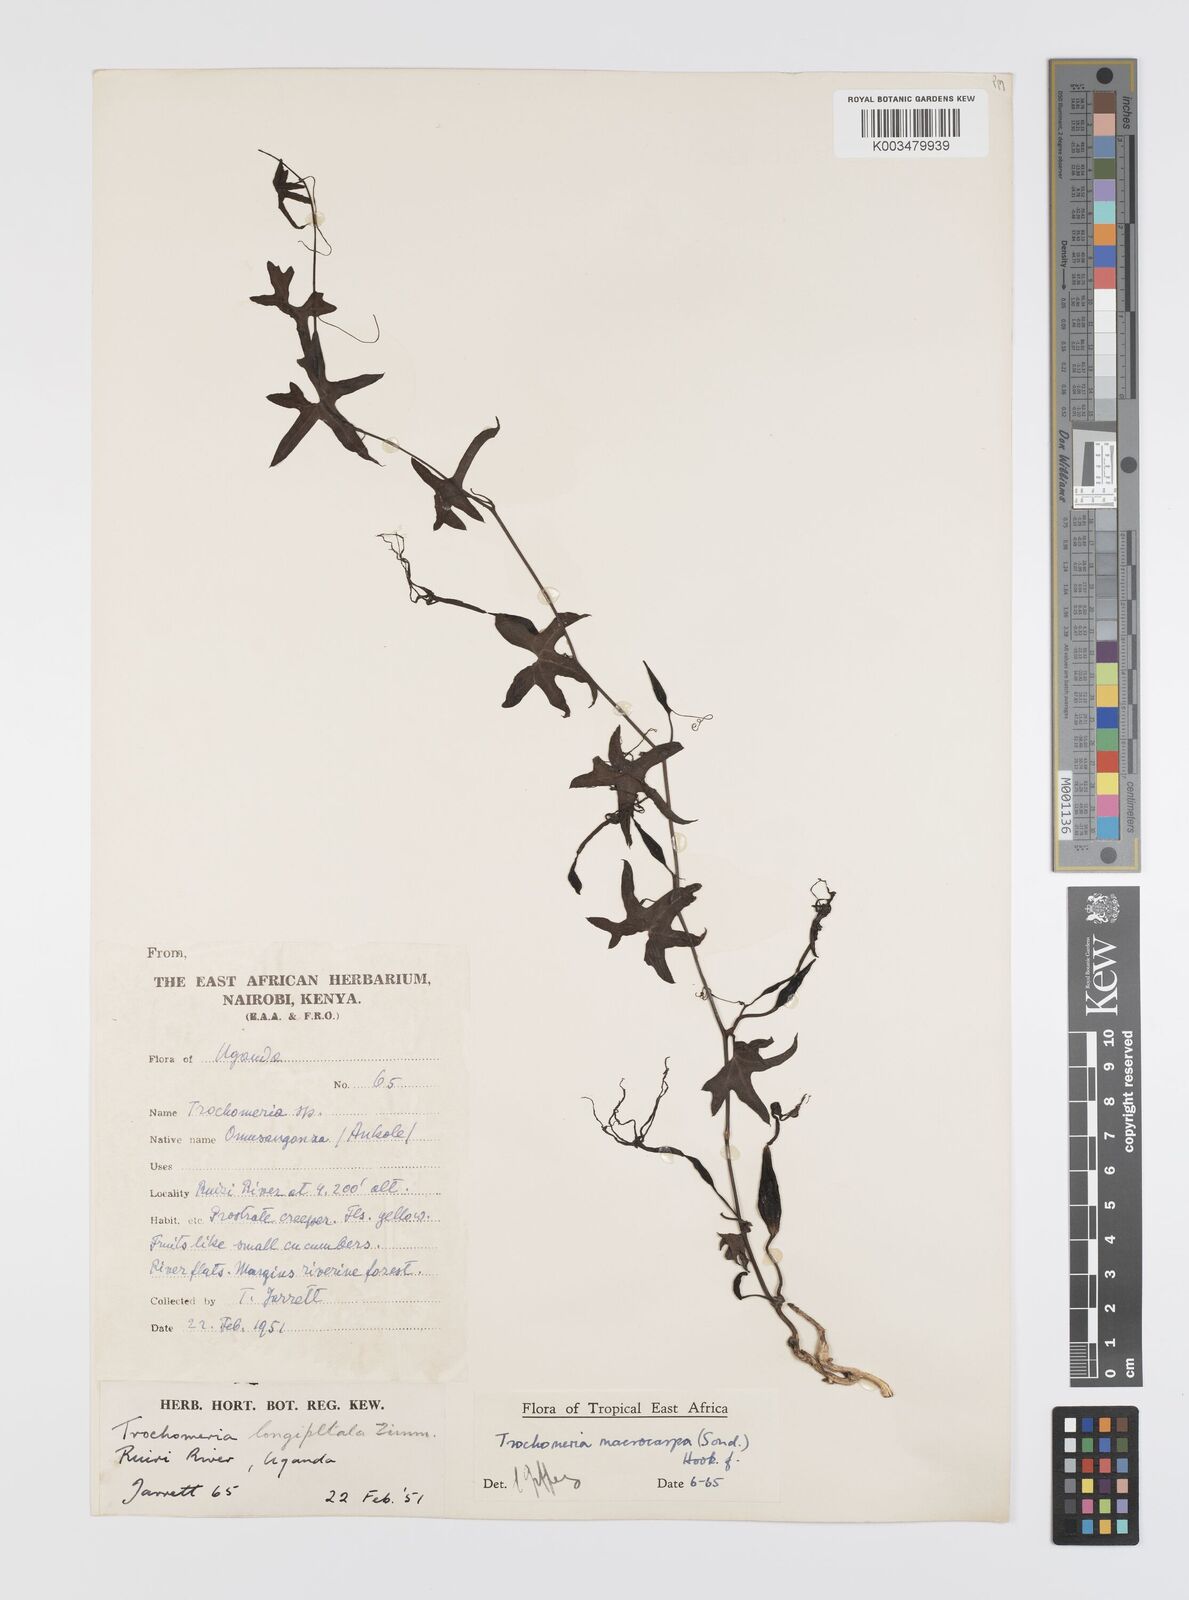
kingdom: Plantae
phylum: Tracheophyta
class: Magnoliopsida
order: Cucurbitales
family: Cucurbitaceae
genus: Trochomeria
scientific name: Trochomeria macrocarpa
